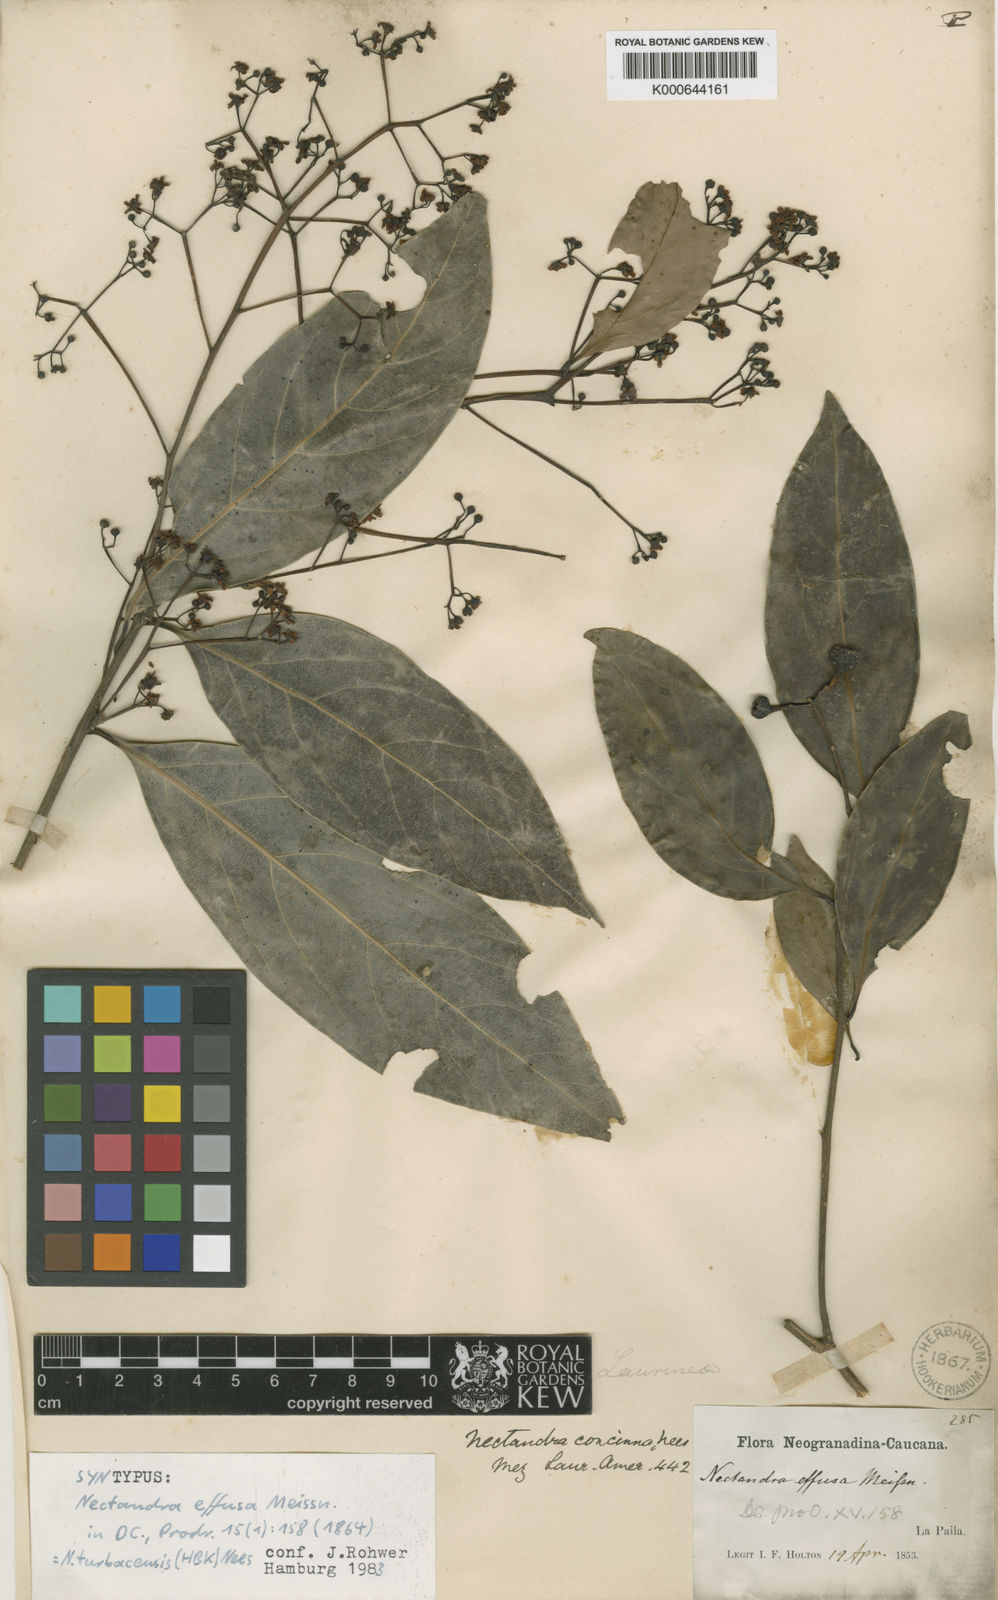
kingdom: Plantae
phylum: Tracheophyta
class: Magnoliopsida
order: Laurales
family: Lauraceae
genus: Nectandra
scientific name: Nectandra turbacensis
